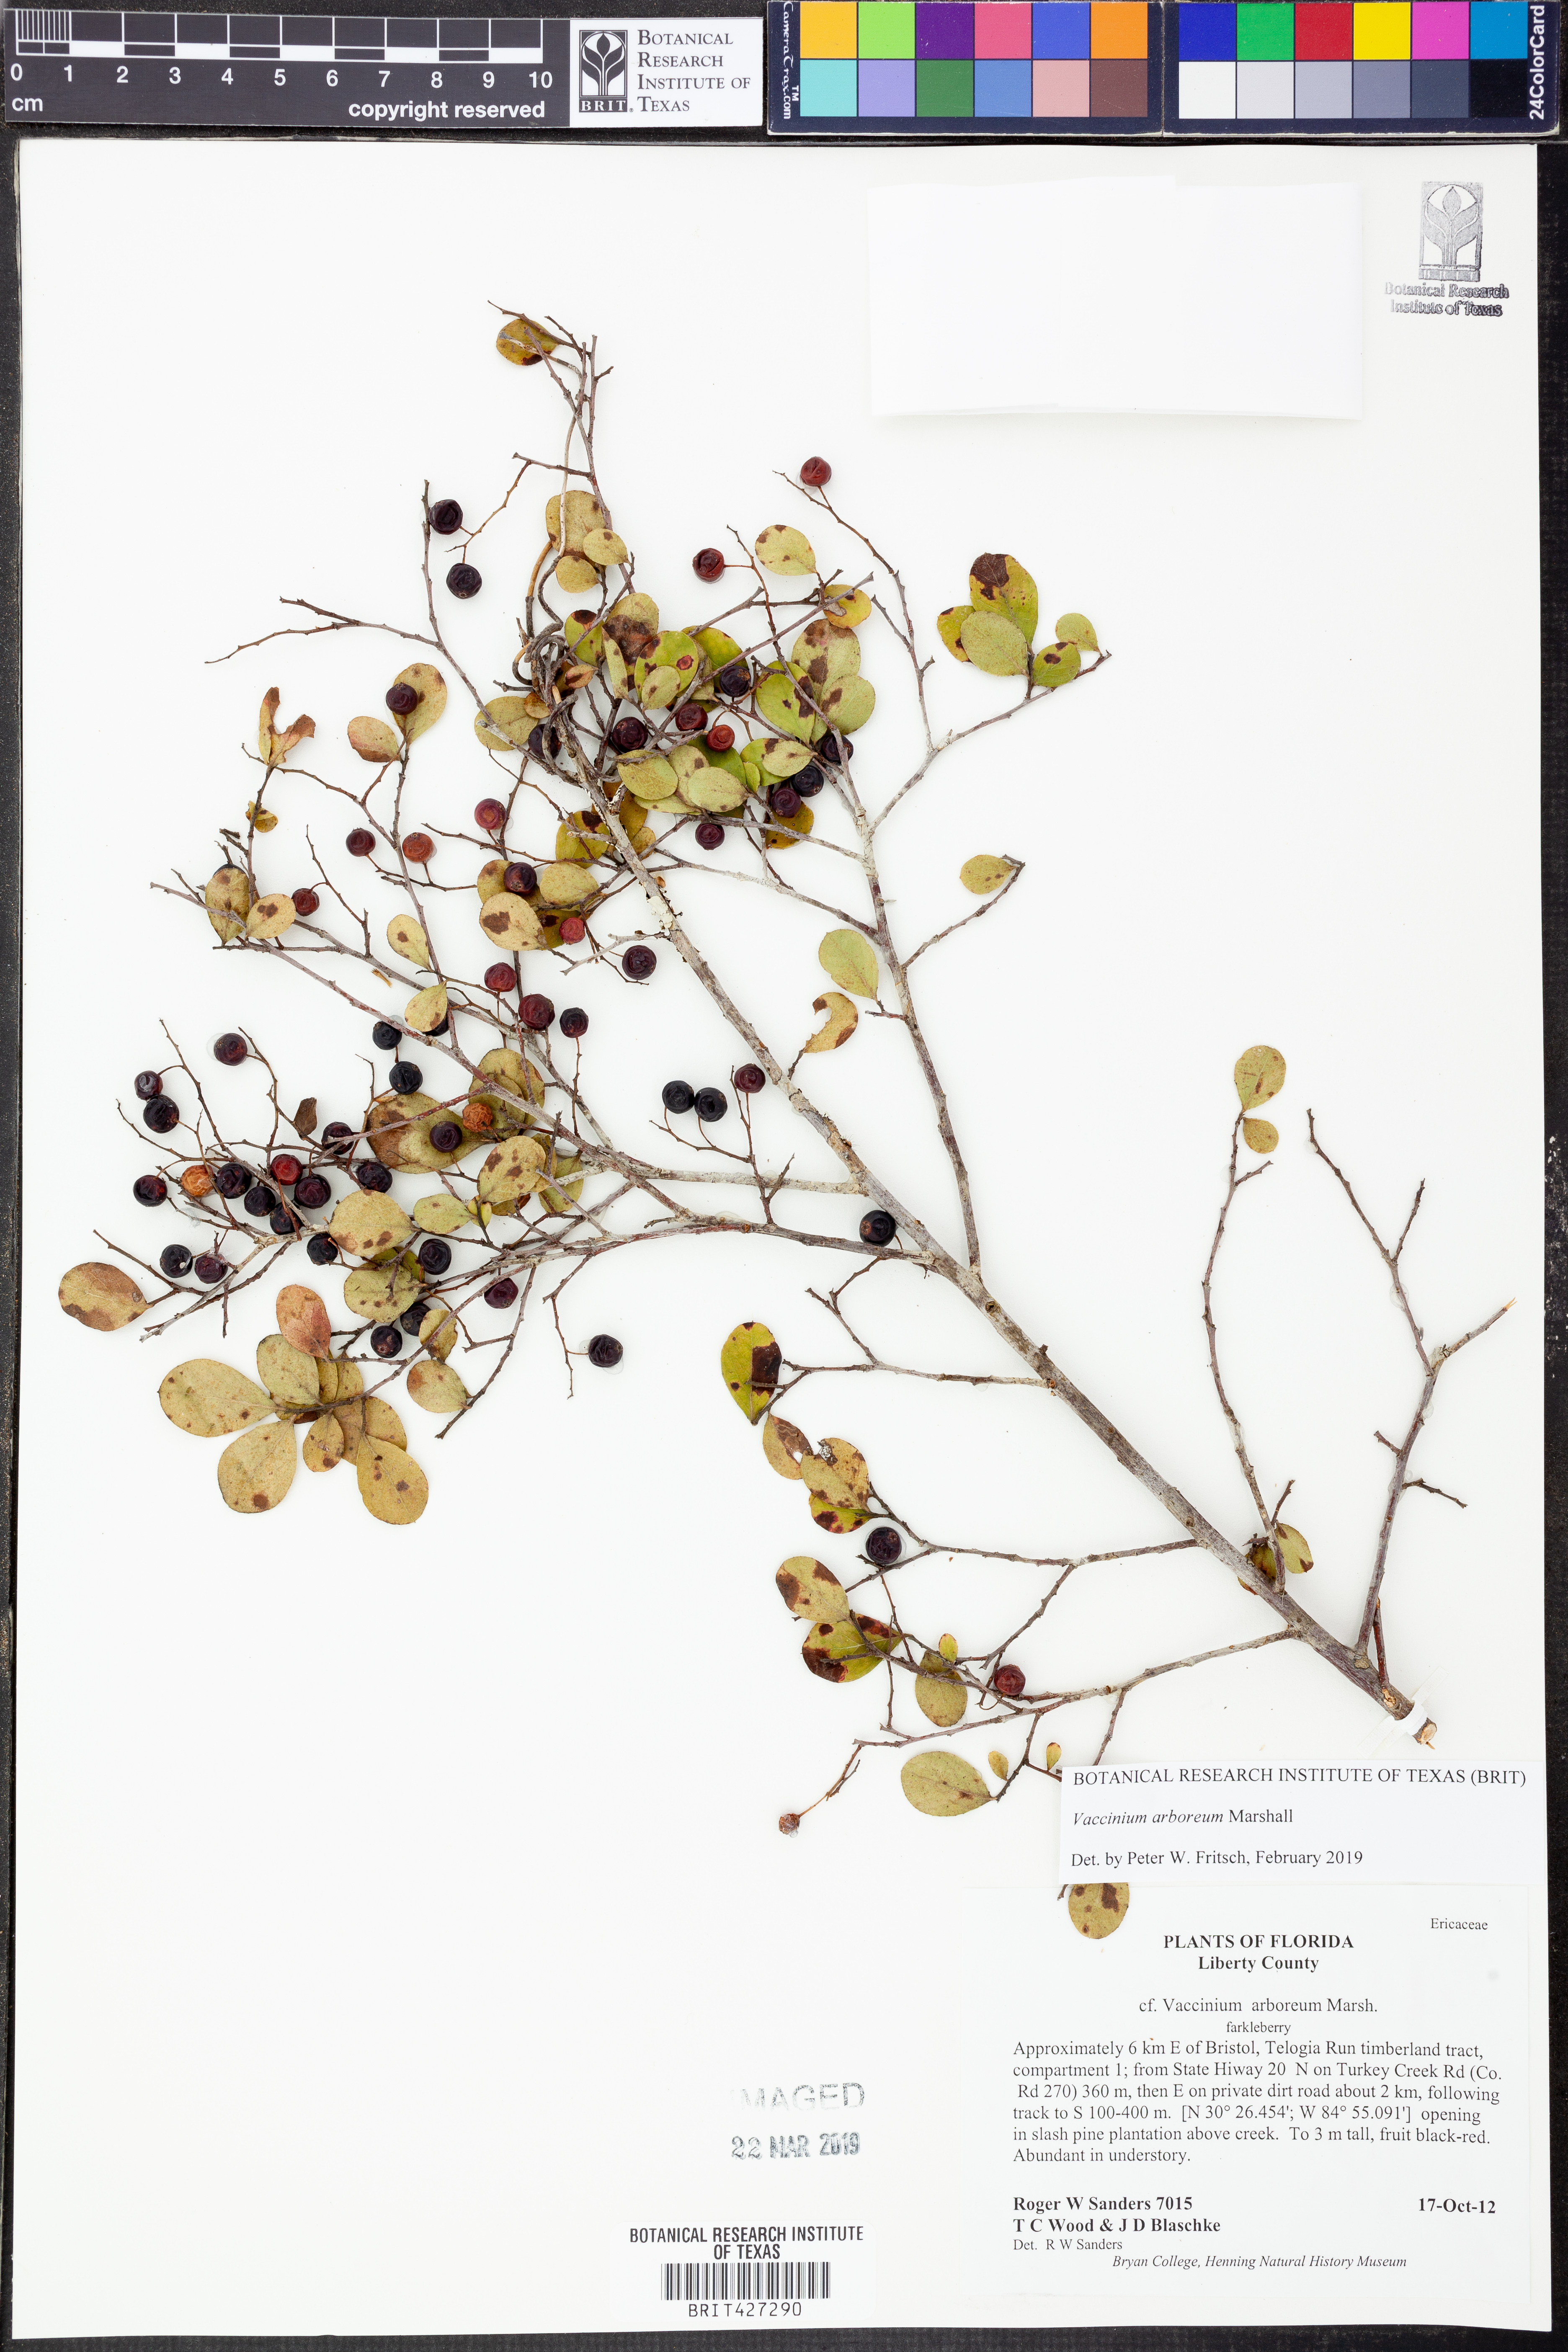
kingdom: Plantae
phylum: Tracheophyta
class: Magnoliopsida
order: Ericales
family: Ericaceae
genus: Vaccinium
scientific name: Vaccinium arboreum
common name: Farkleberry
